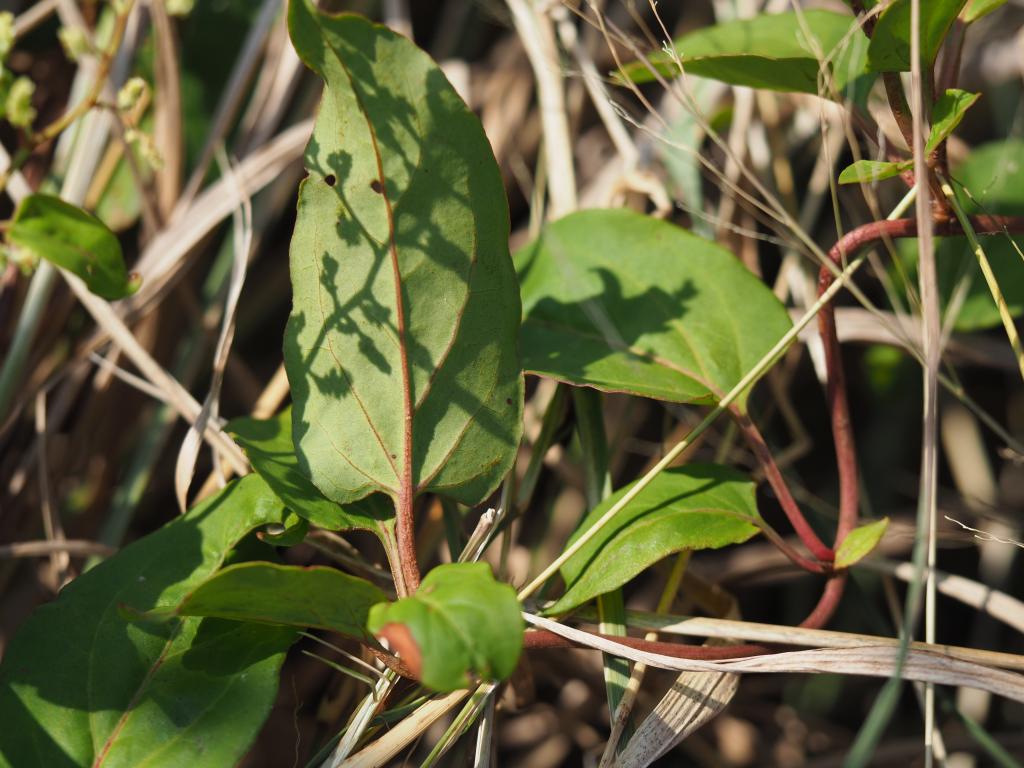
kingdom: Plantae
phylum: Tracheophyta
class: Magnoliopsida
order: Caryophyllales
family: Polygonaceae
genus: Reynoutria
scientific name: Reynoutria multiflora
